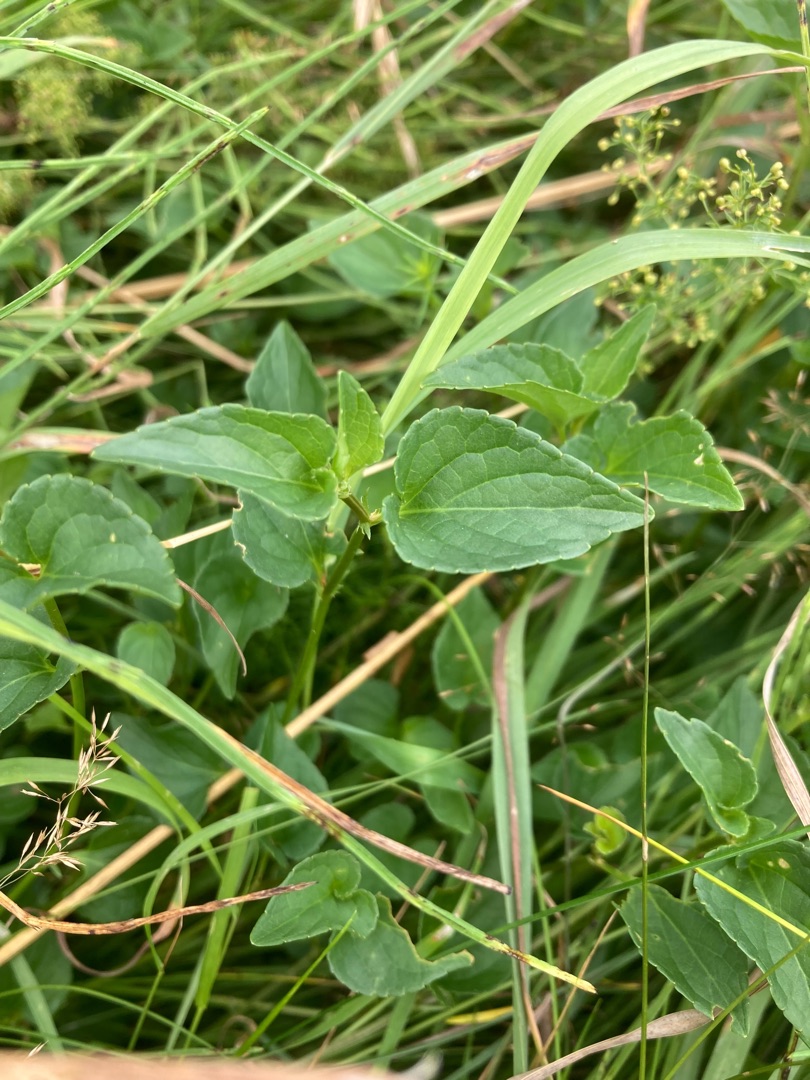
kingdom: Plantae
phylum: Tracheophyta
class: Magnoliopsida
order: Malpighiales
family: Violaceae
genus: Viola
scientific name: Viola canina
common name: Hunde-viol
